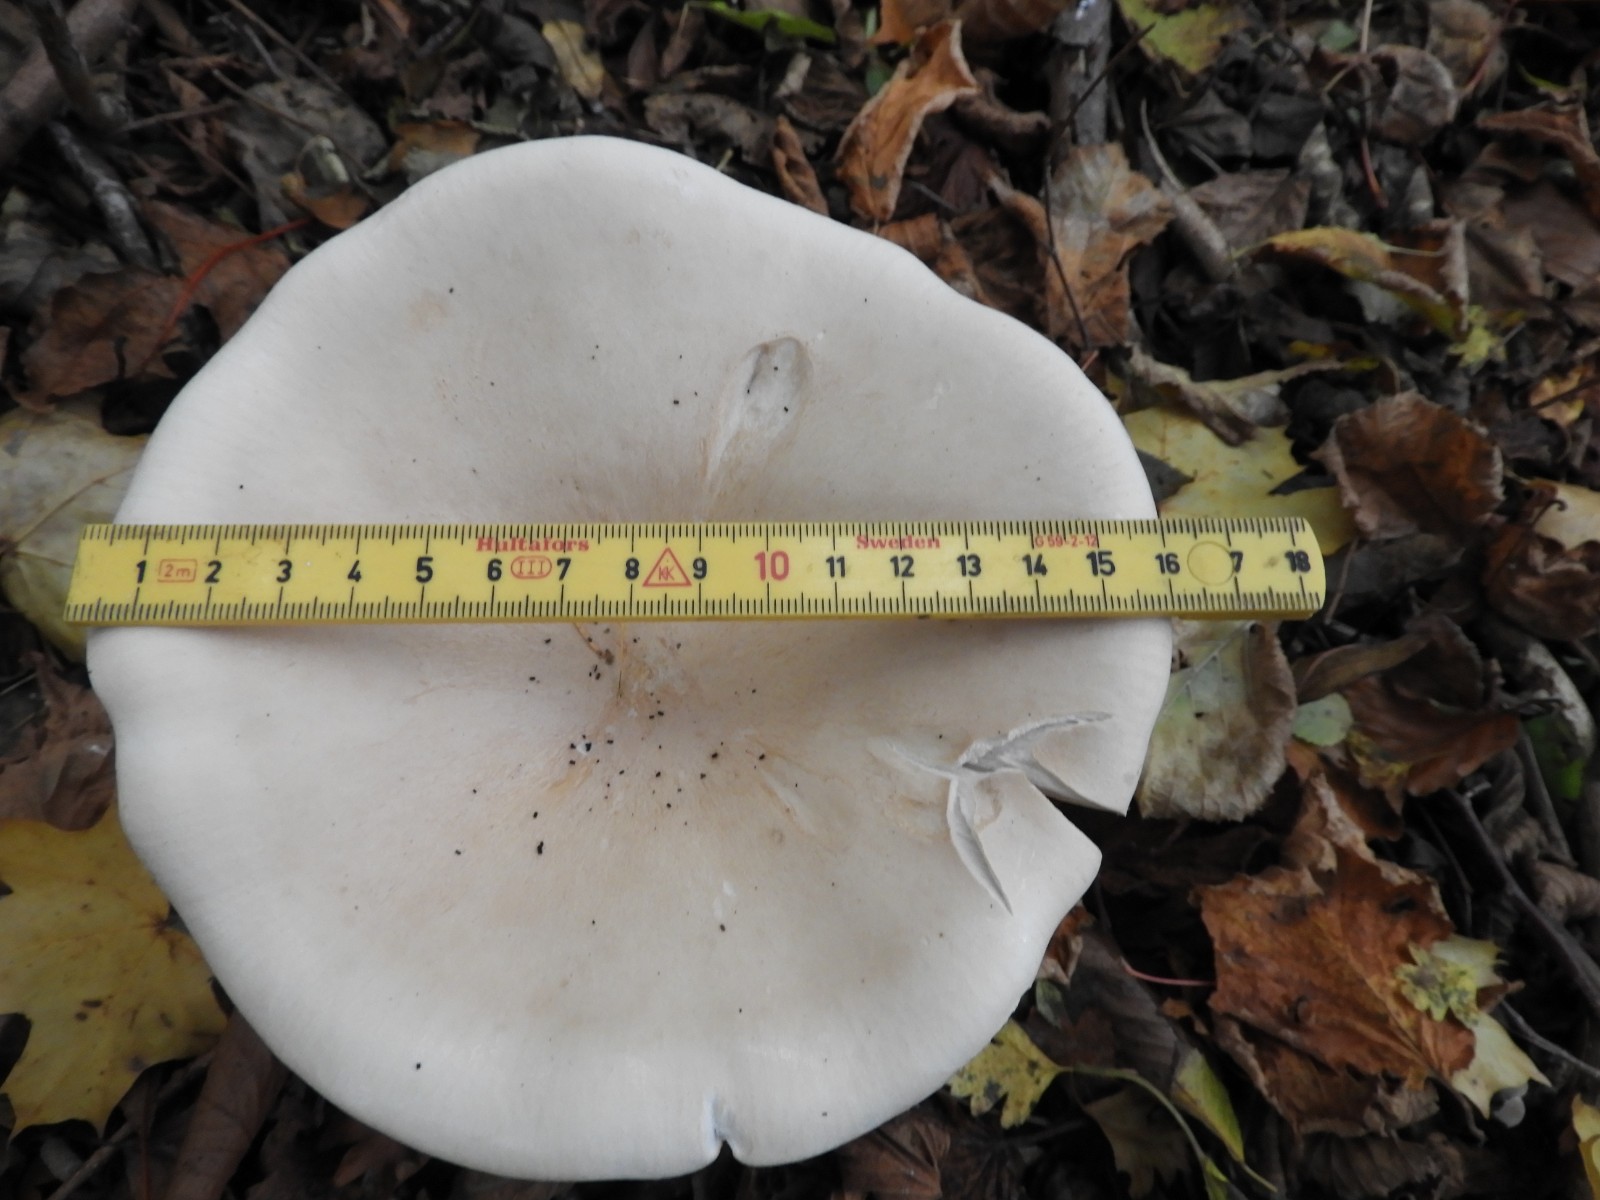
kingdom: Fungi
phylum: Basidiomycota
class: Agaricomycetes
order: Agaricales
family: Tricholomataceae
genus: Infundibulicybe
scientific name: Infundibulicybe geotropa
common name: stor tragthat
